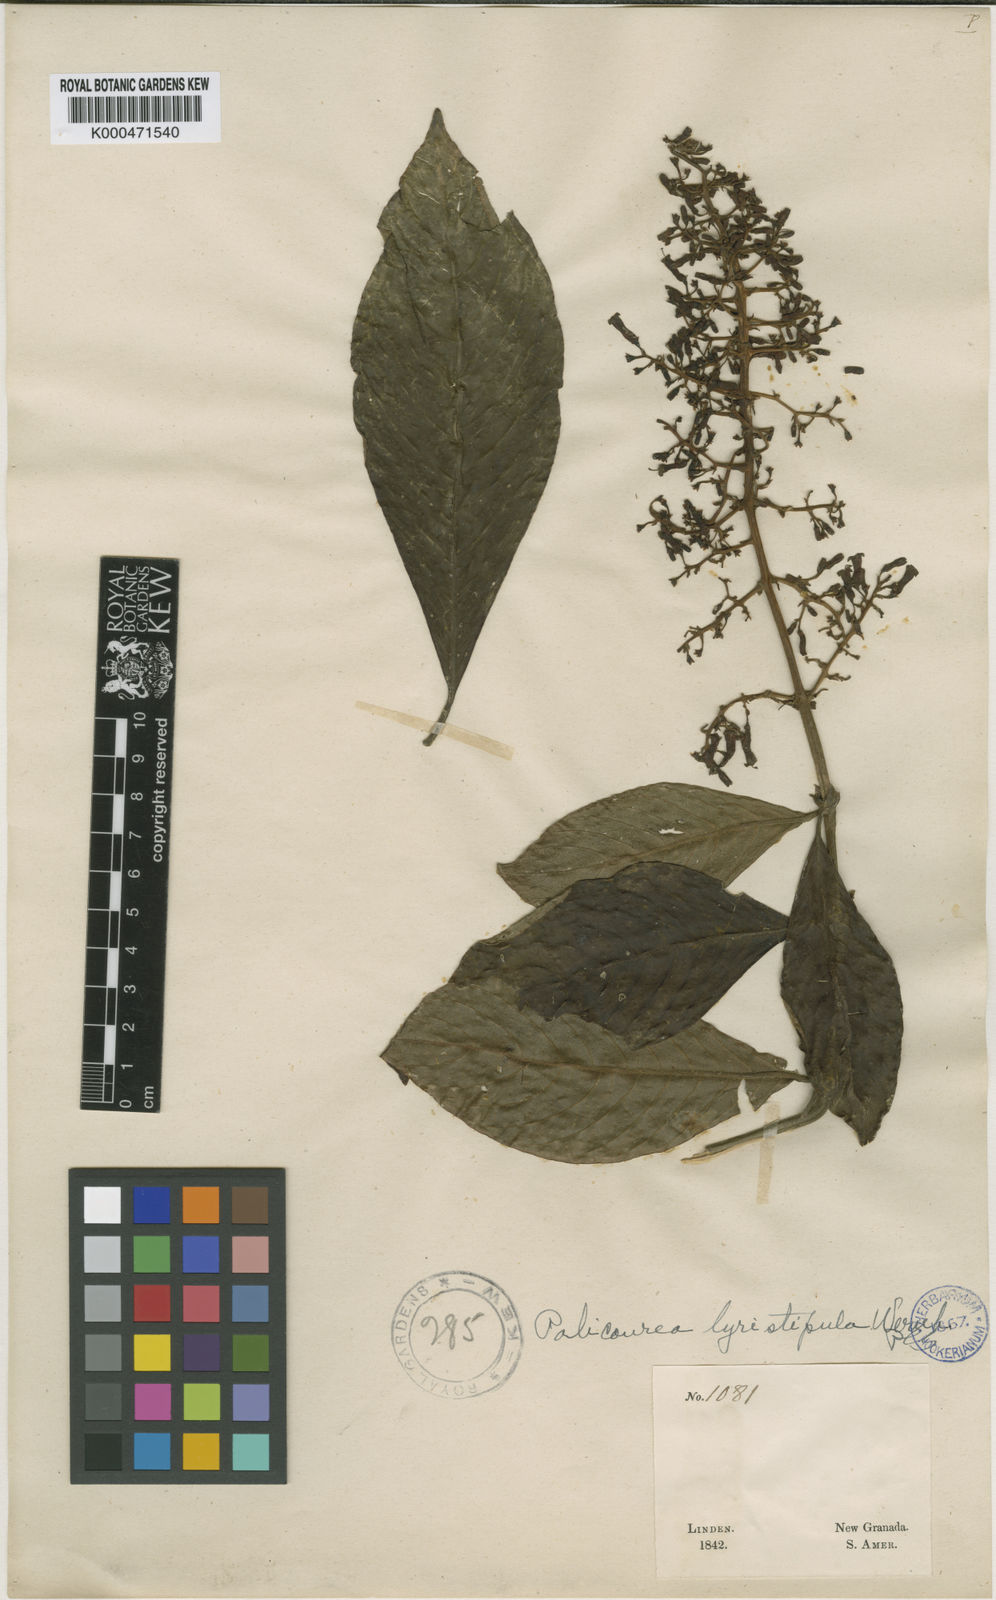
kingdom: Plantae
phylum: Tracheophyta
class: Magnoliopsida
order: Gentianales
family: Rubiaceae
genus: Palicourea
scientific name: Palicourea lyristipula
